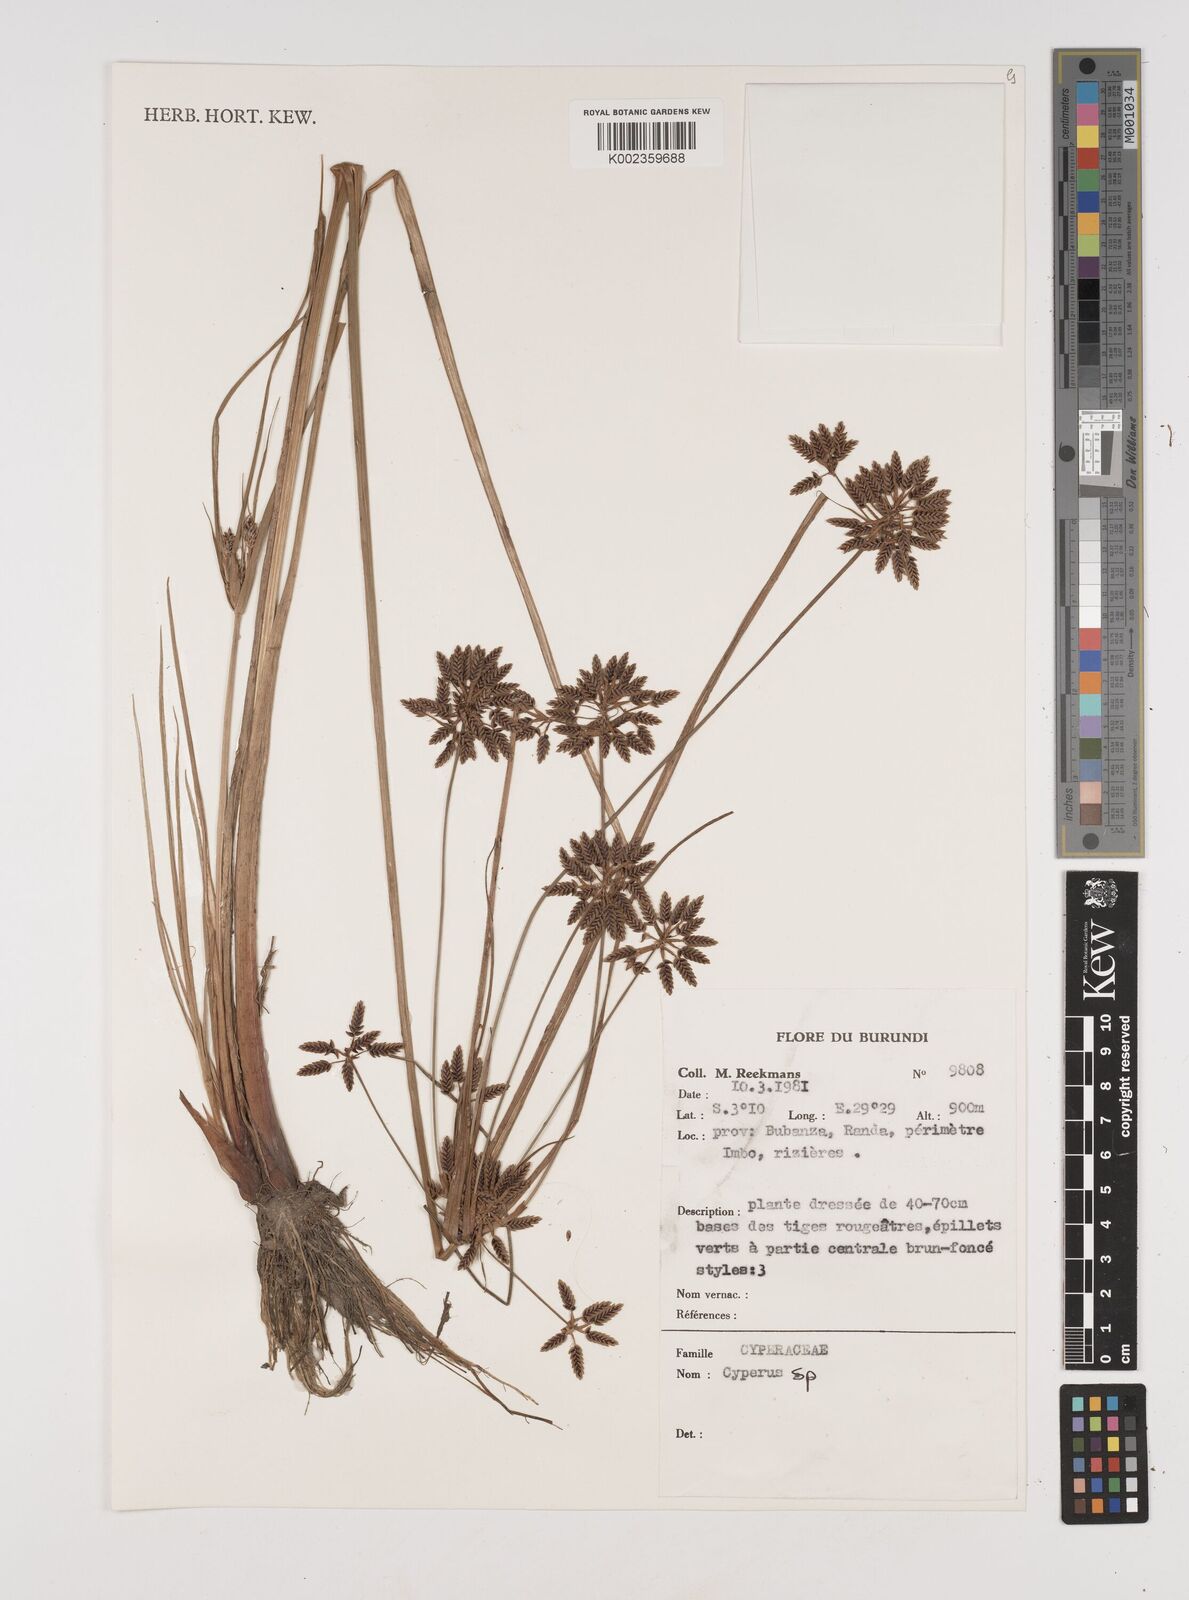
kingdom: Plantae
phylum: Tracheophyta
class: Liliopsida
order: Poales
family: Cyperaceae
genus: Cyperus
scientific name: Cyperus
